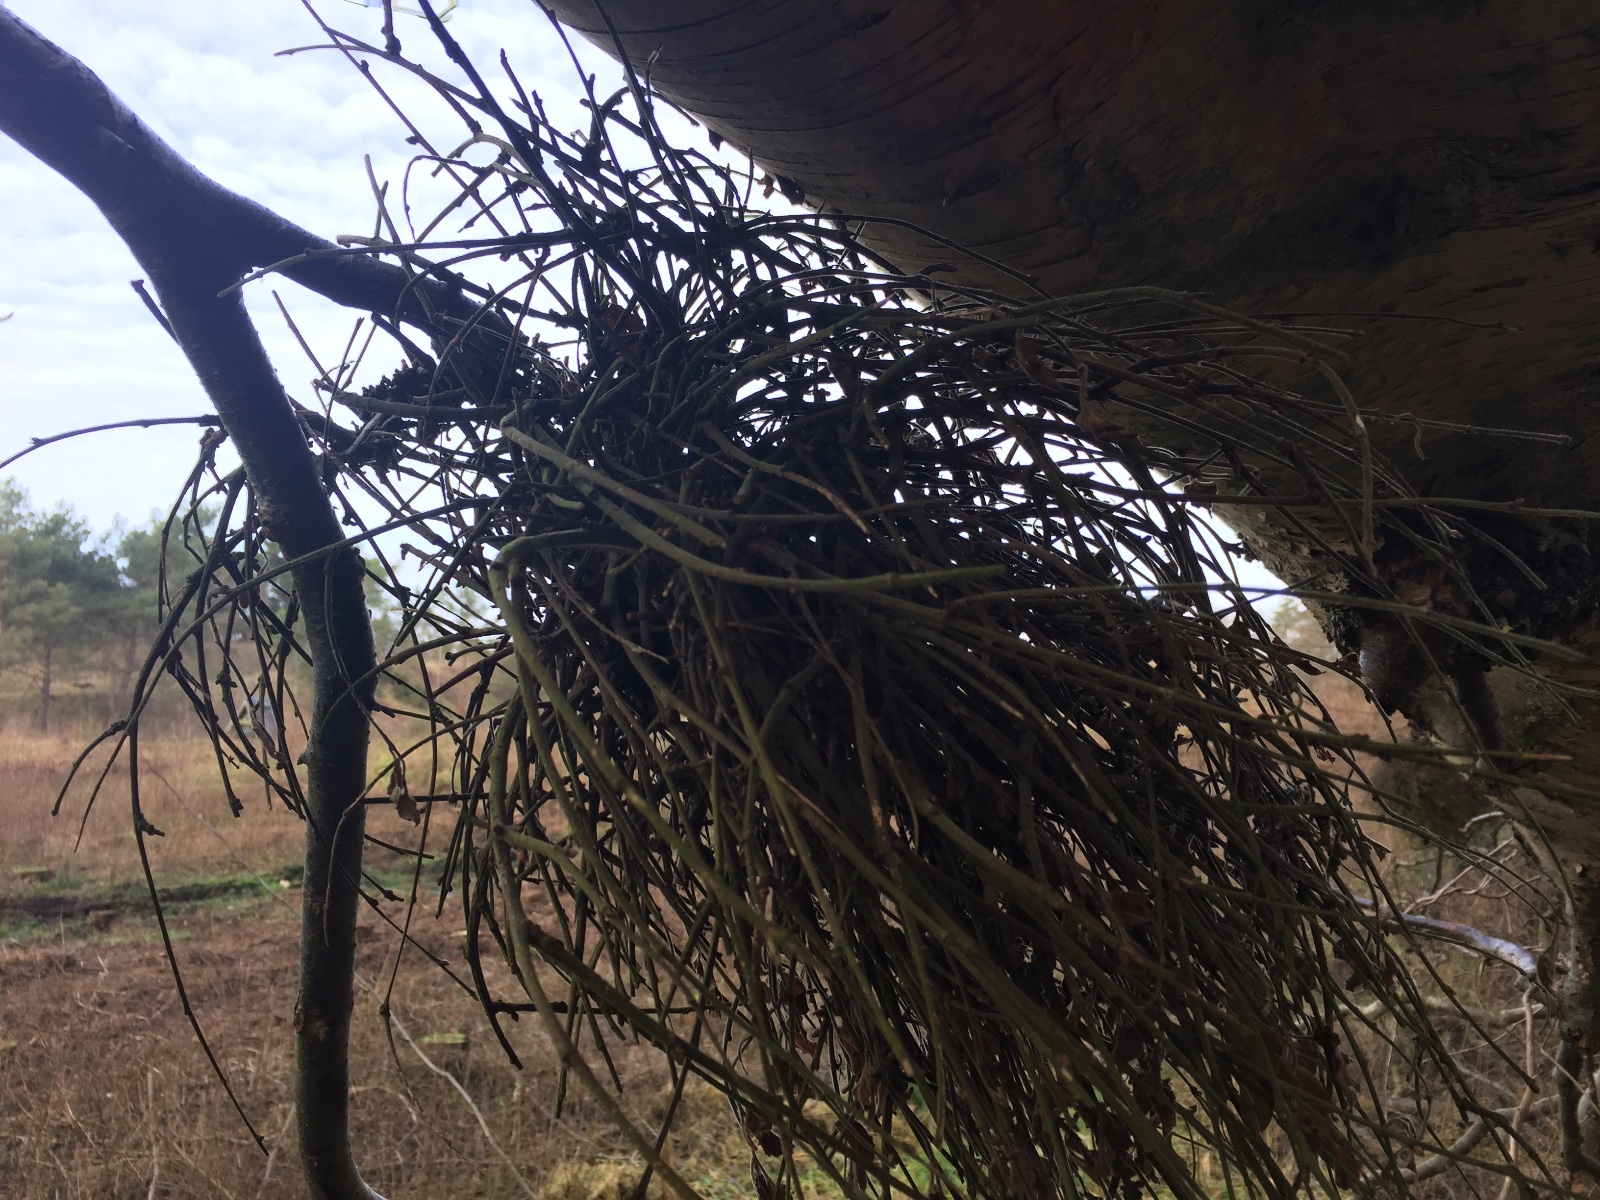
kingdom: Fungi
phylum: Ascomycota
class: Taphrinomycetes
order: Taphrinales
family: Taphrinaceae
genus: Taphrina
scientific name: Taphrina betulina
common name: hekse-sækdug
